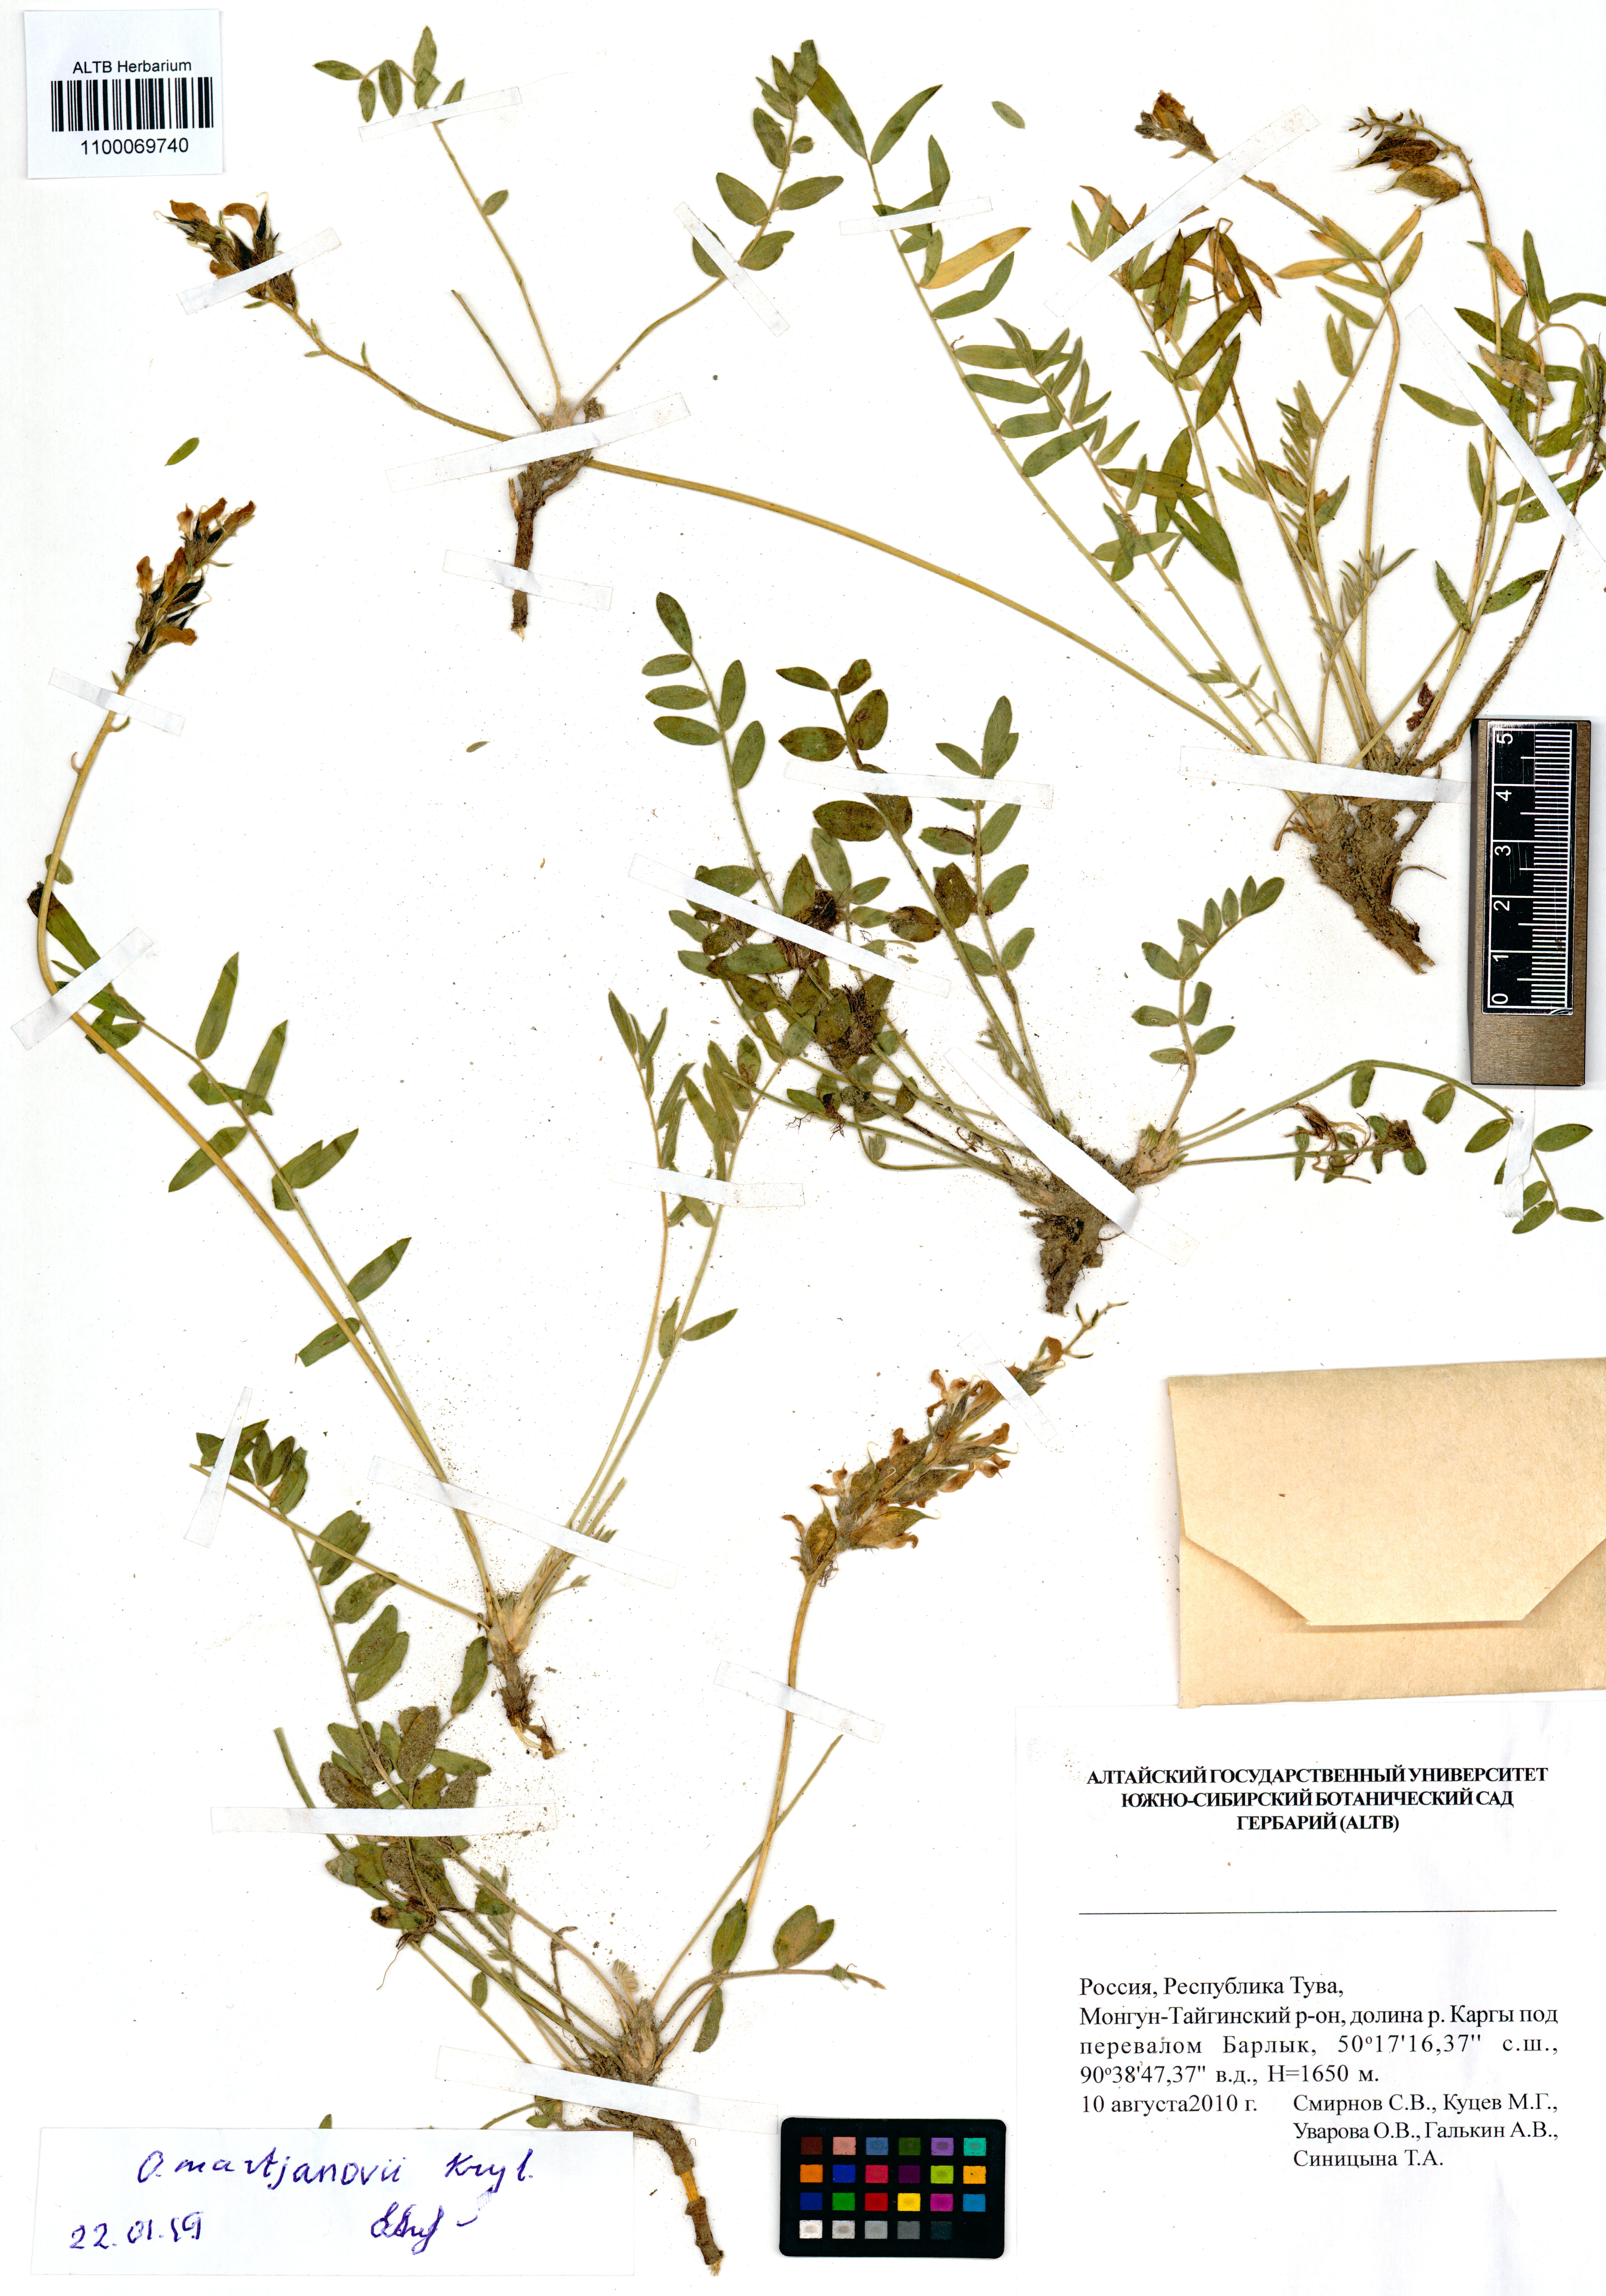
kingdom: Plantae
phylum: Tracheophyta
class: Magnoliopsida
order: Fabales
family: Fabaceae
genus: Oxytropis
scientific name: Oxytropis martjanovii
